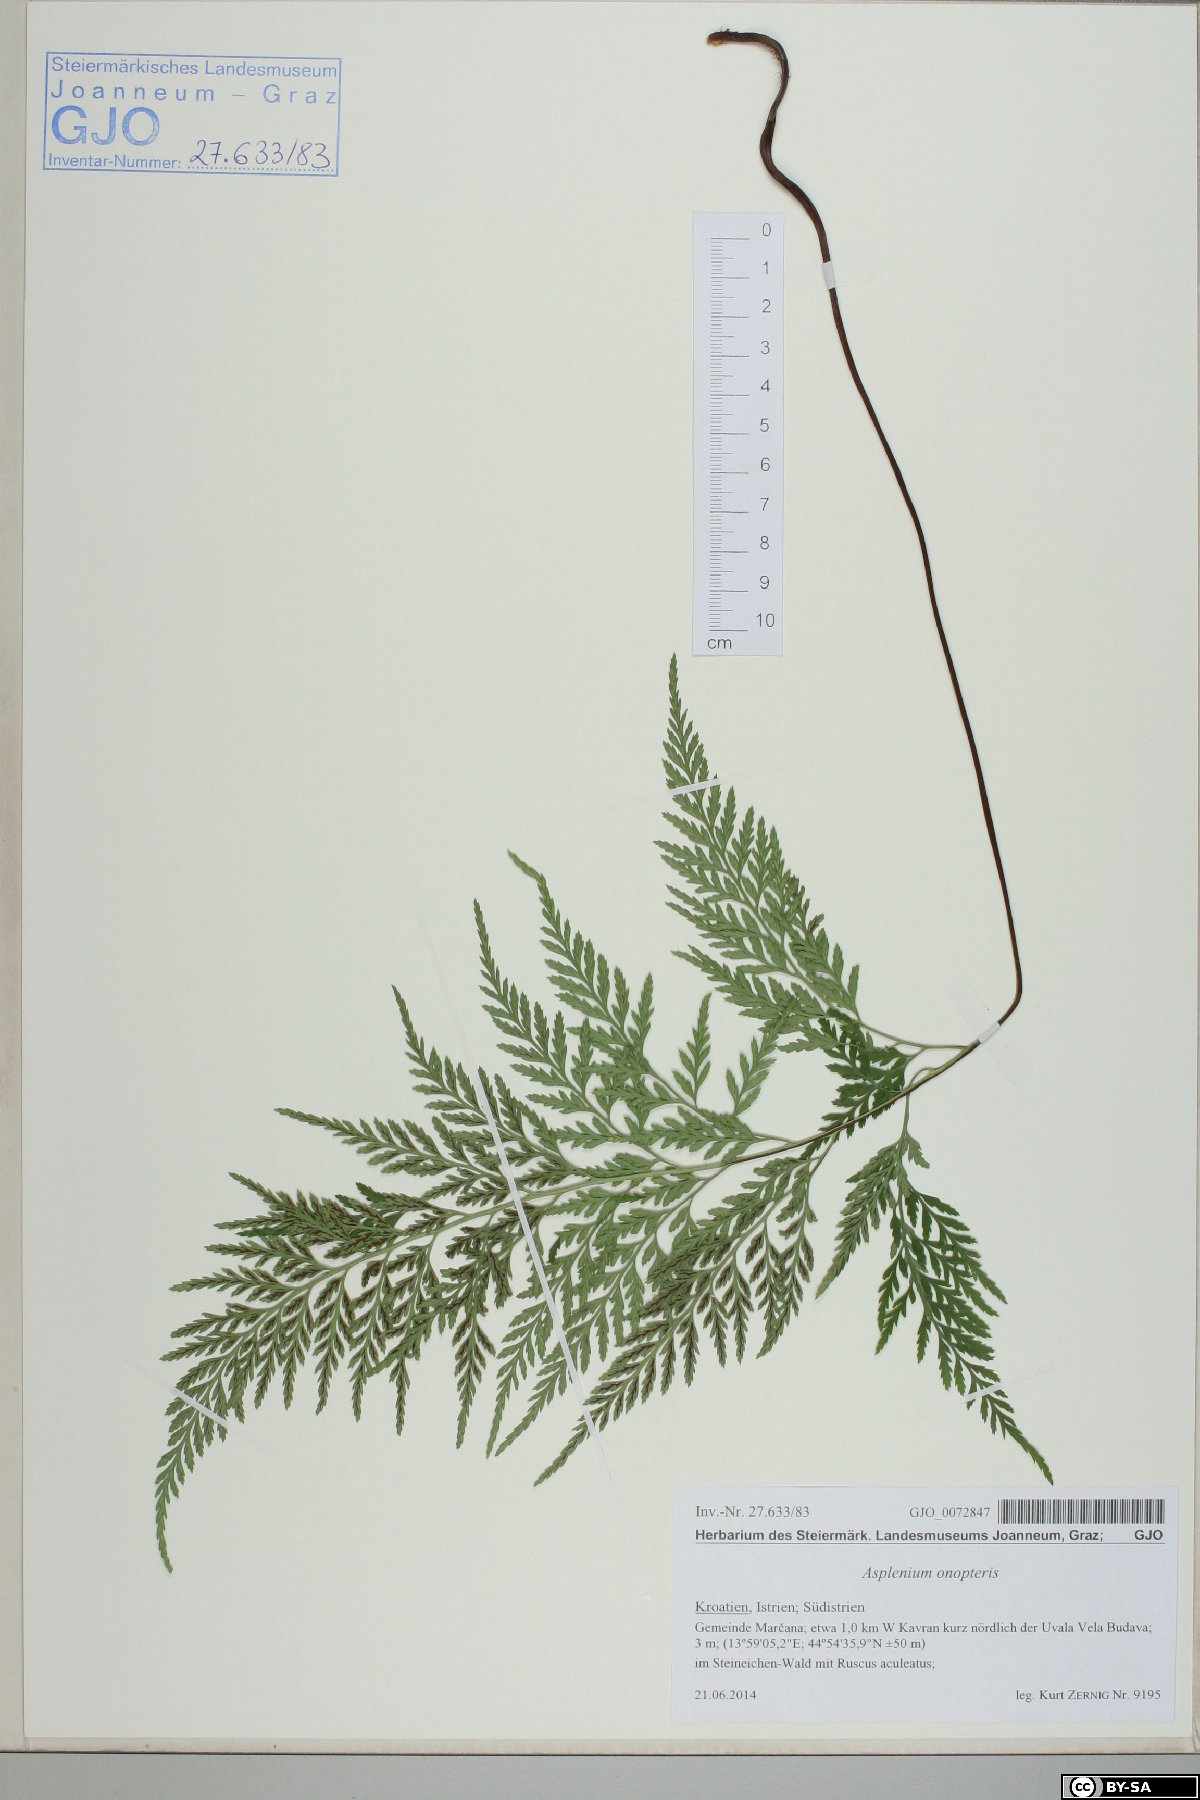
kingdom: Plantae
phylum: Tracheophyta
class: Polypodiopsida
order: Polypodiales
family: Aspleniaceae
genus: Asplenium
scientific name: Asplenium onopteris
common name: Irish spleenwort
